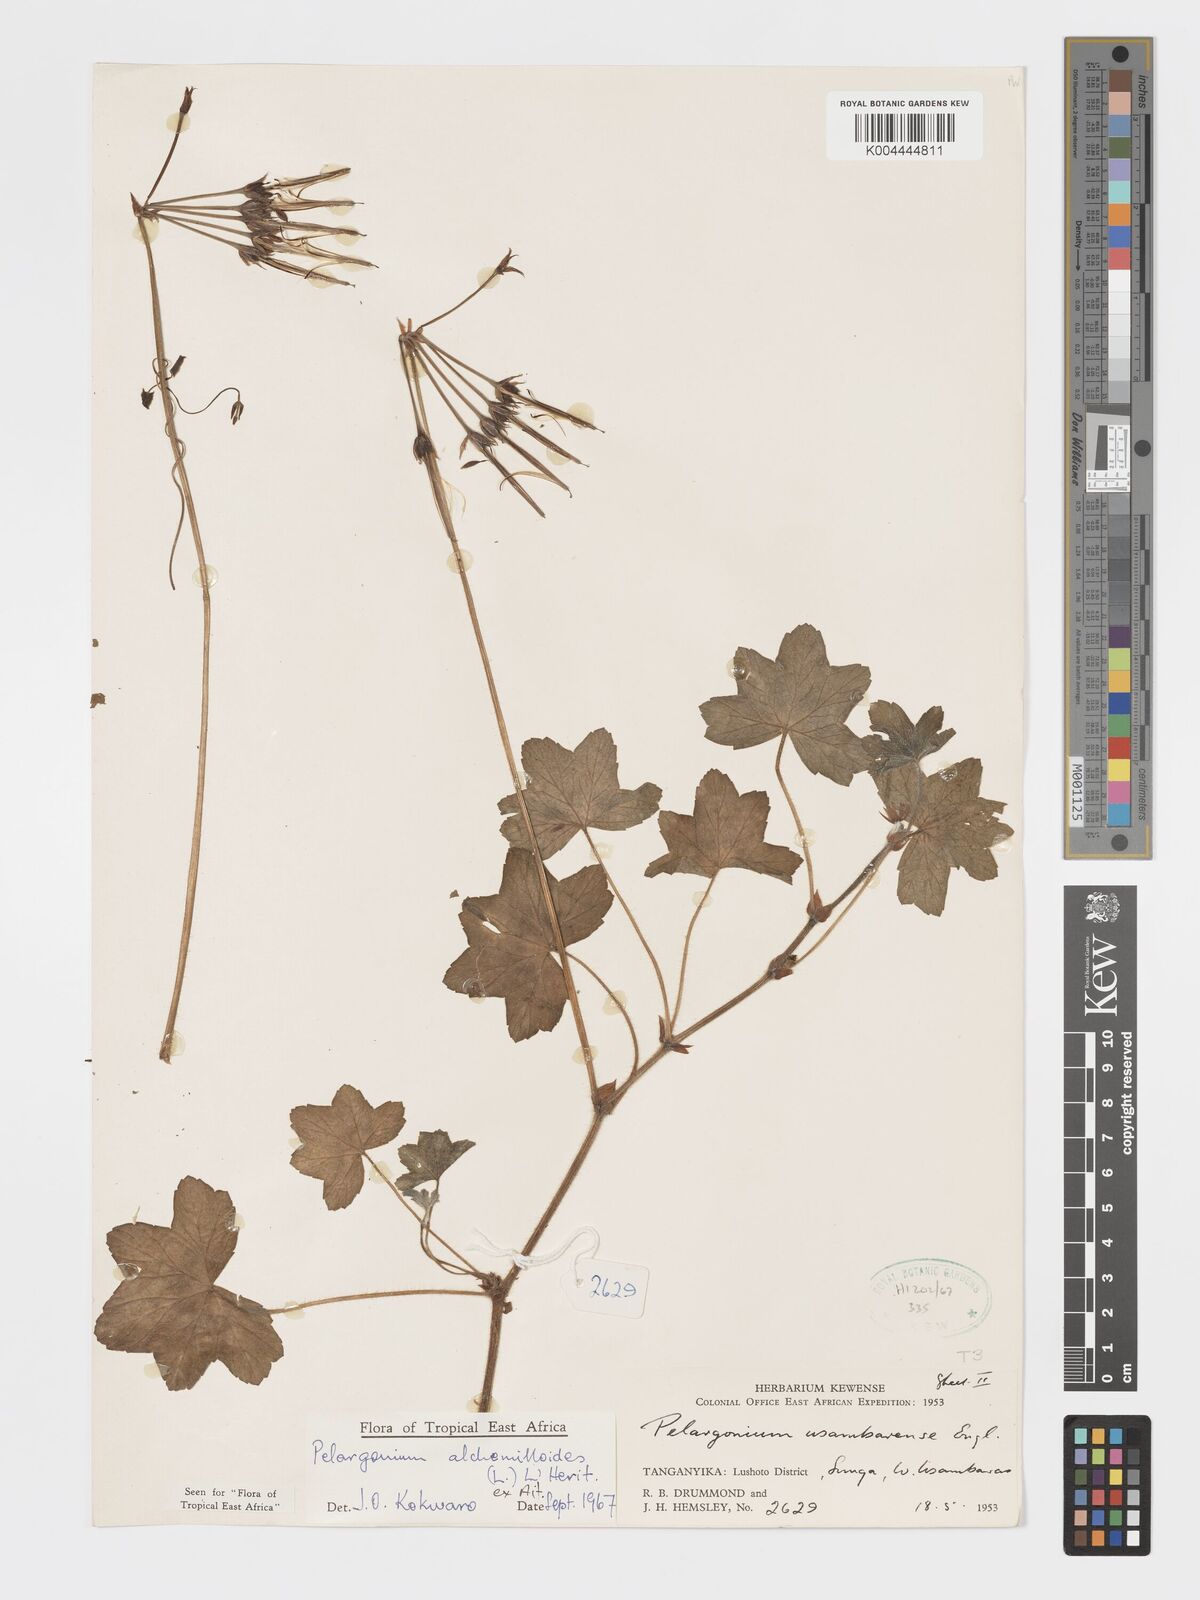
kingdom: Plantae
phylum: Tracheophyta
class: Magnoliopsida
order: Geraniales
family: Geraniaceae
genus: Pelargonium
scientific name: Pelargonium alchemilloides
